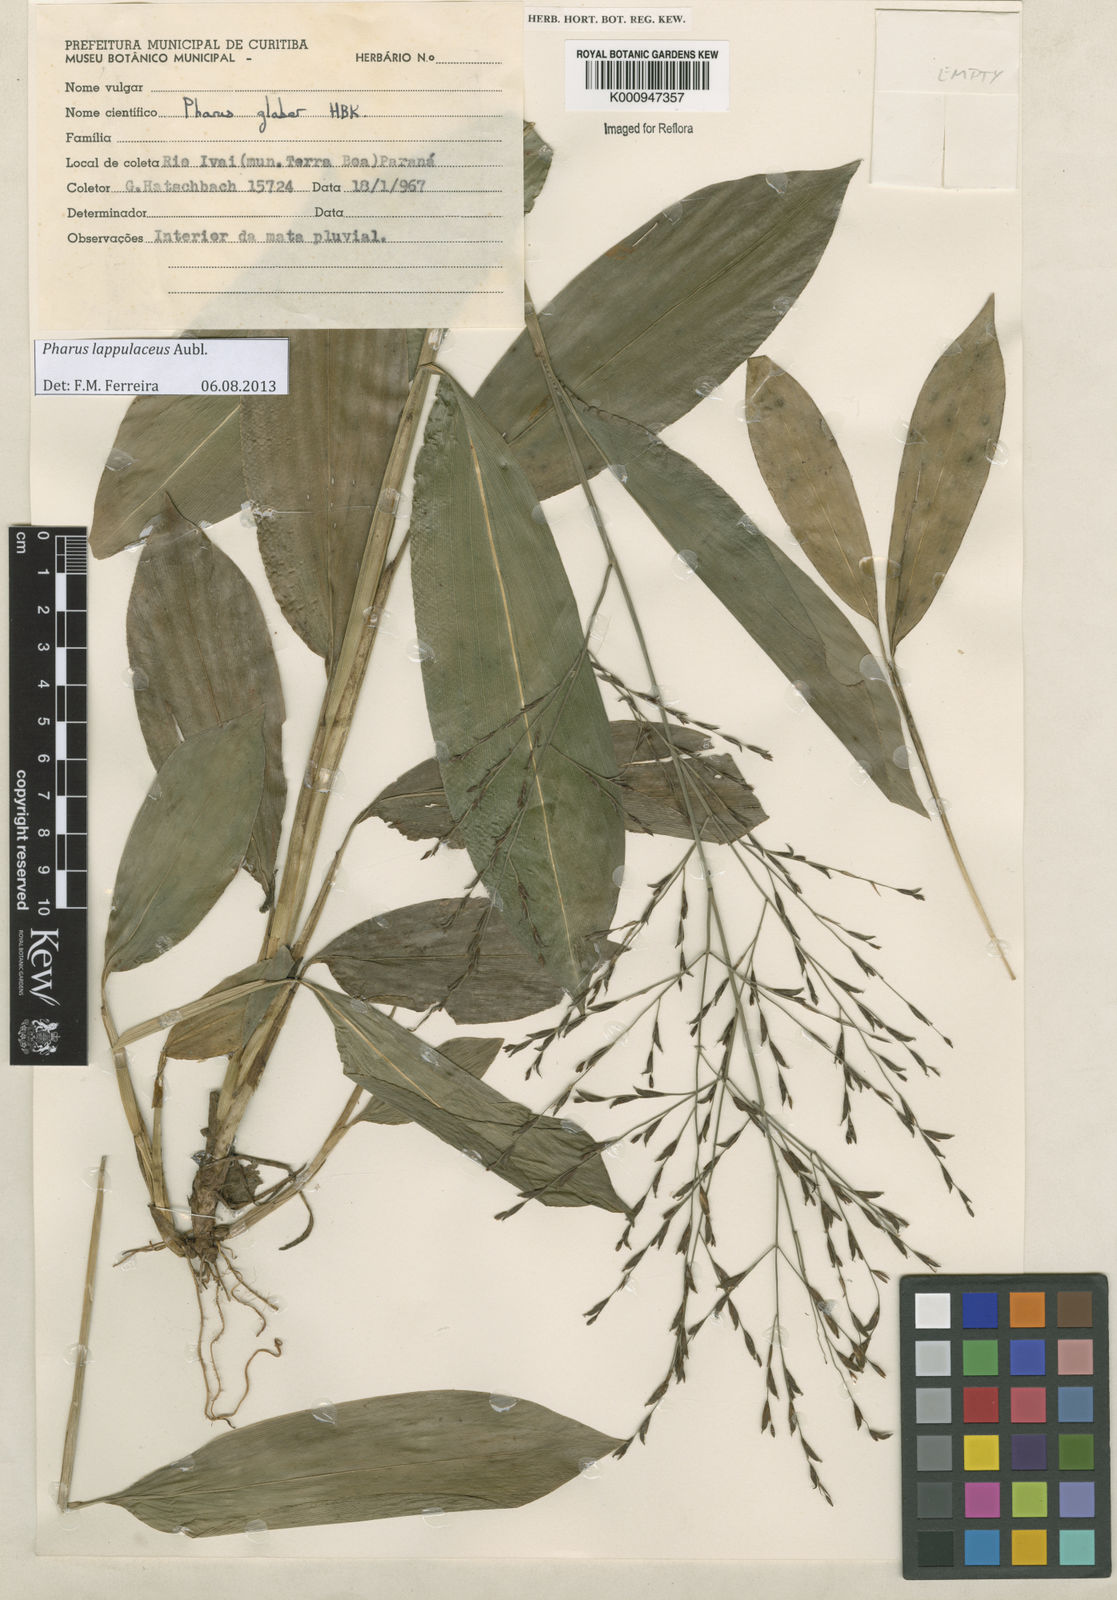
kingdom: Plantae
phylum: Tracheophyta
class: Liliopsida
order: Poales
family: Poaceae
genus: Pharus
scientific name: Pharus lappulaceus
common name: Creeping leafstalk grass
